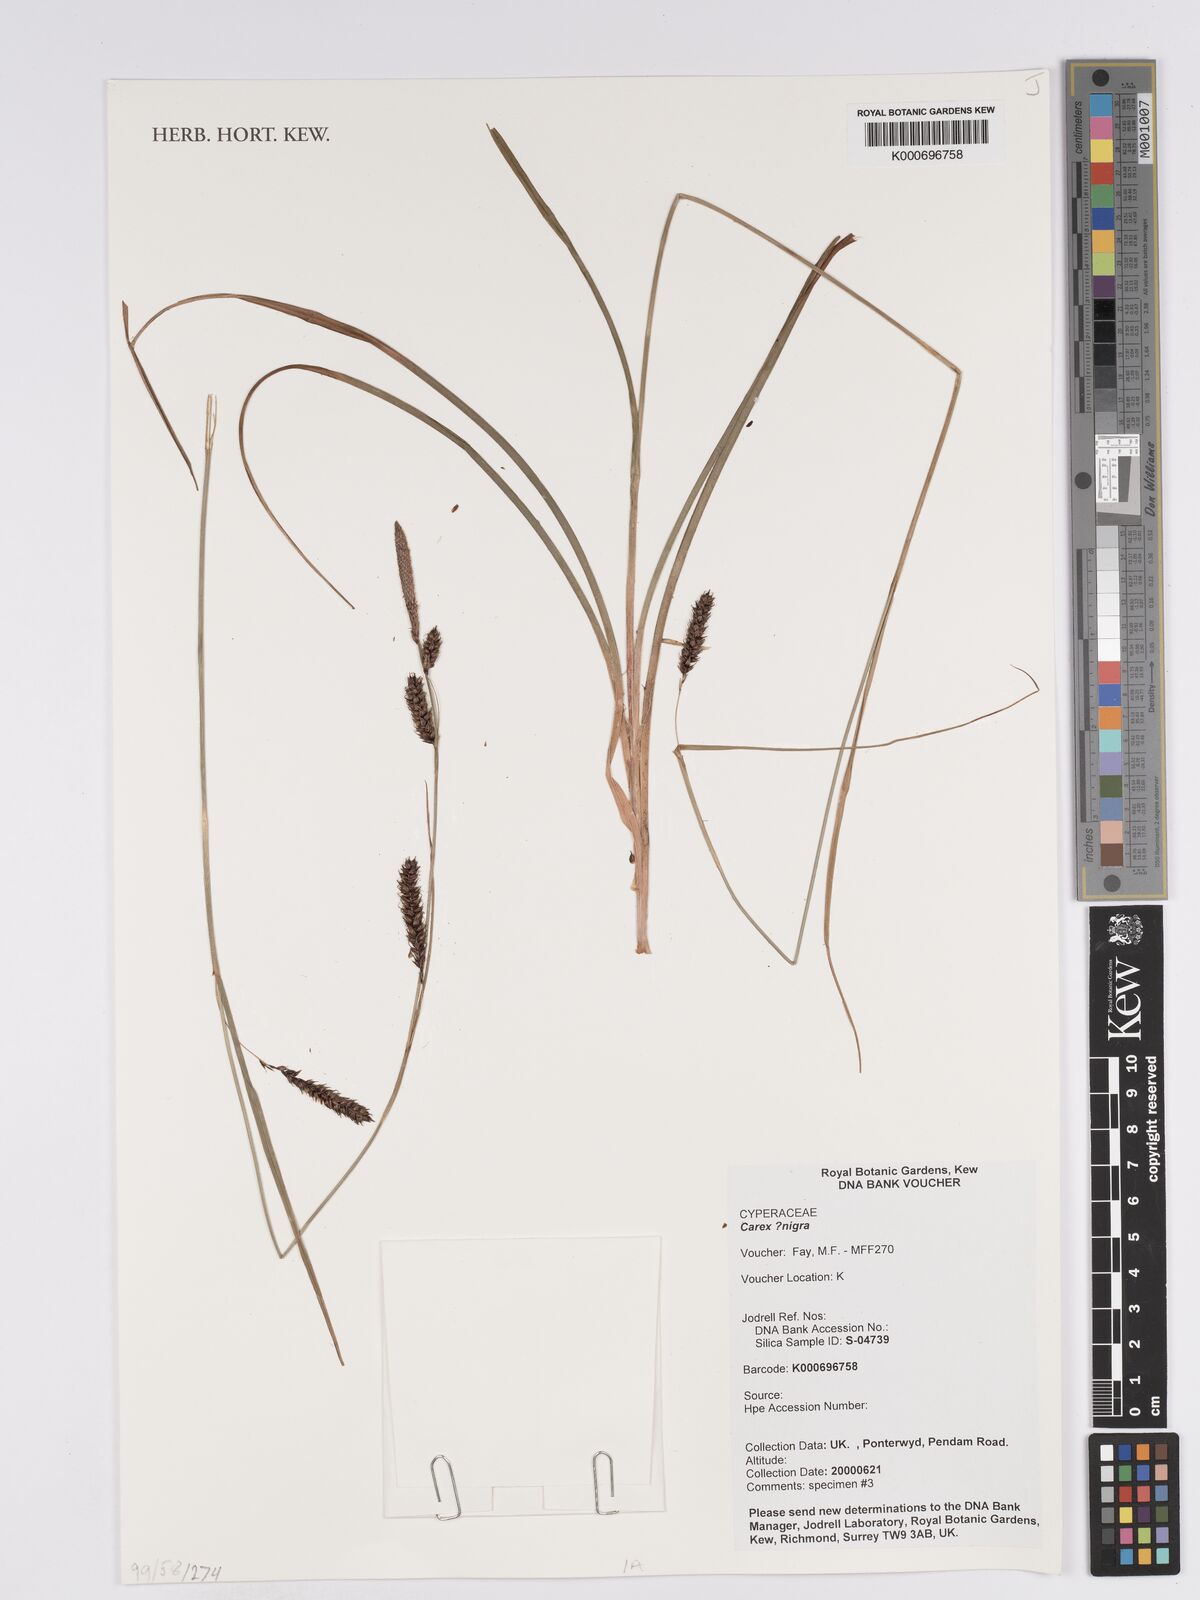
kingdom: Plantae
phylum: Tracheophyta
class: Liliopsida
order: Poales
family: Cyperaceae
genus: Carex
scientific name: Carex
